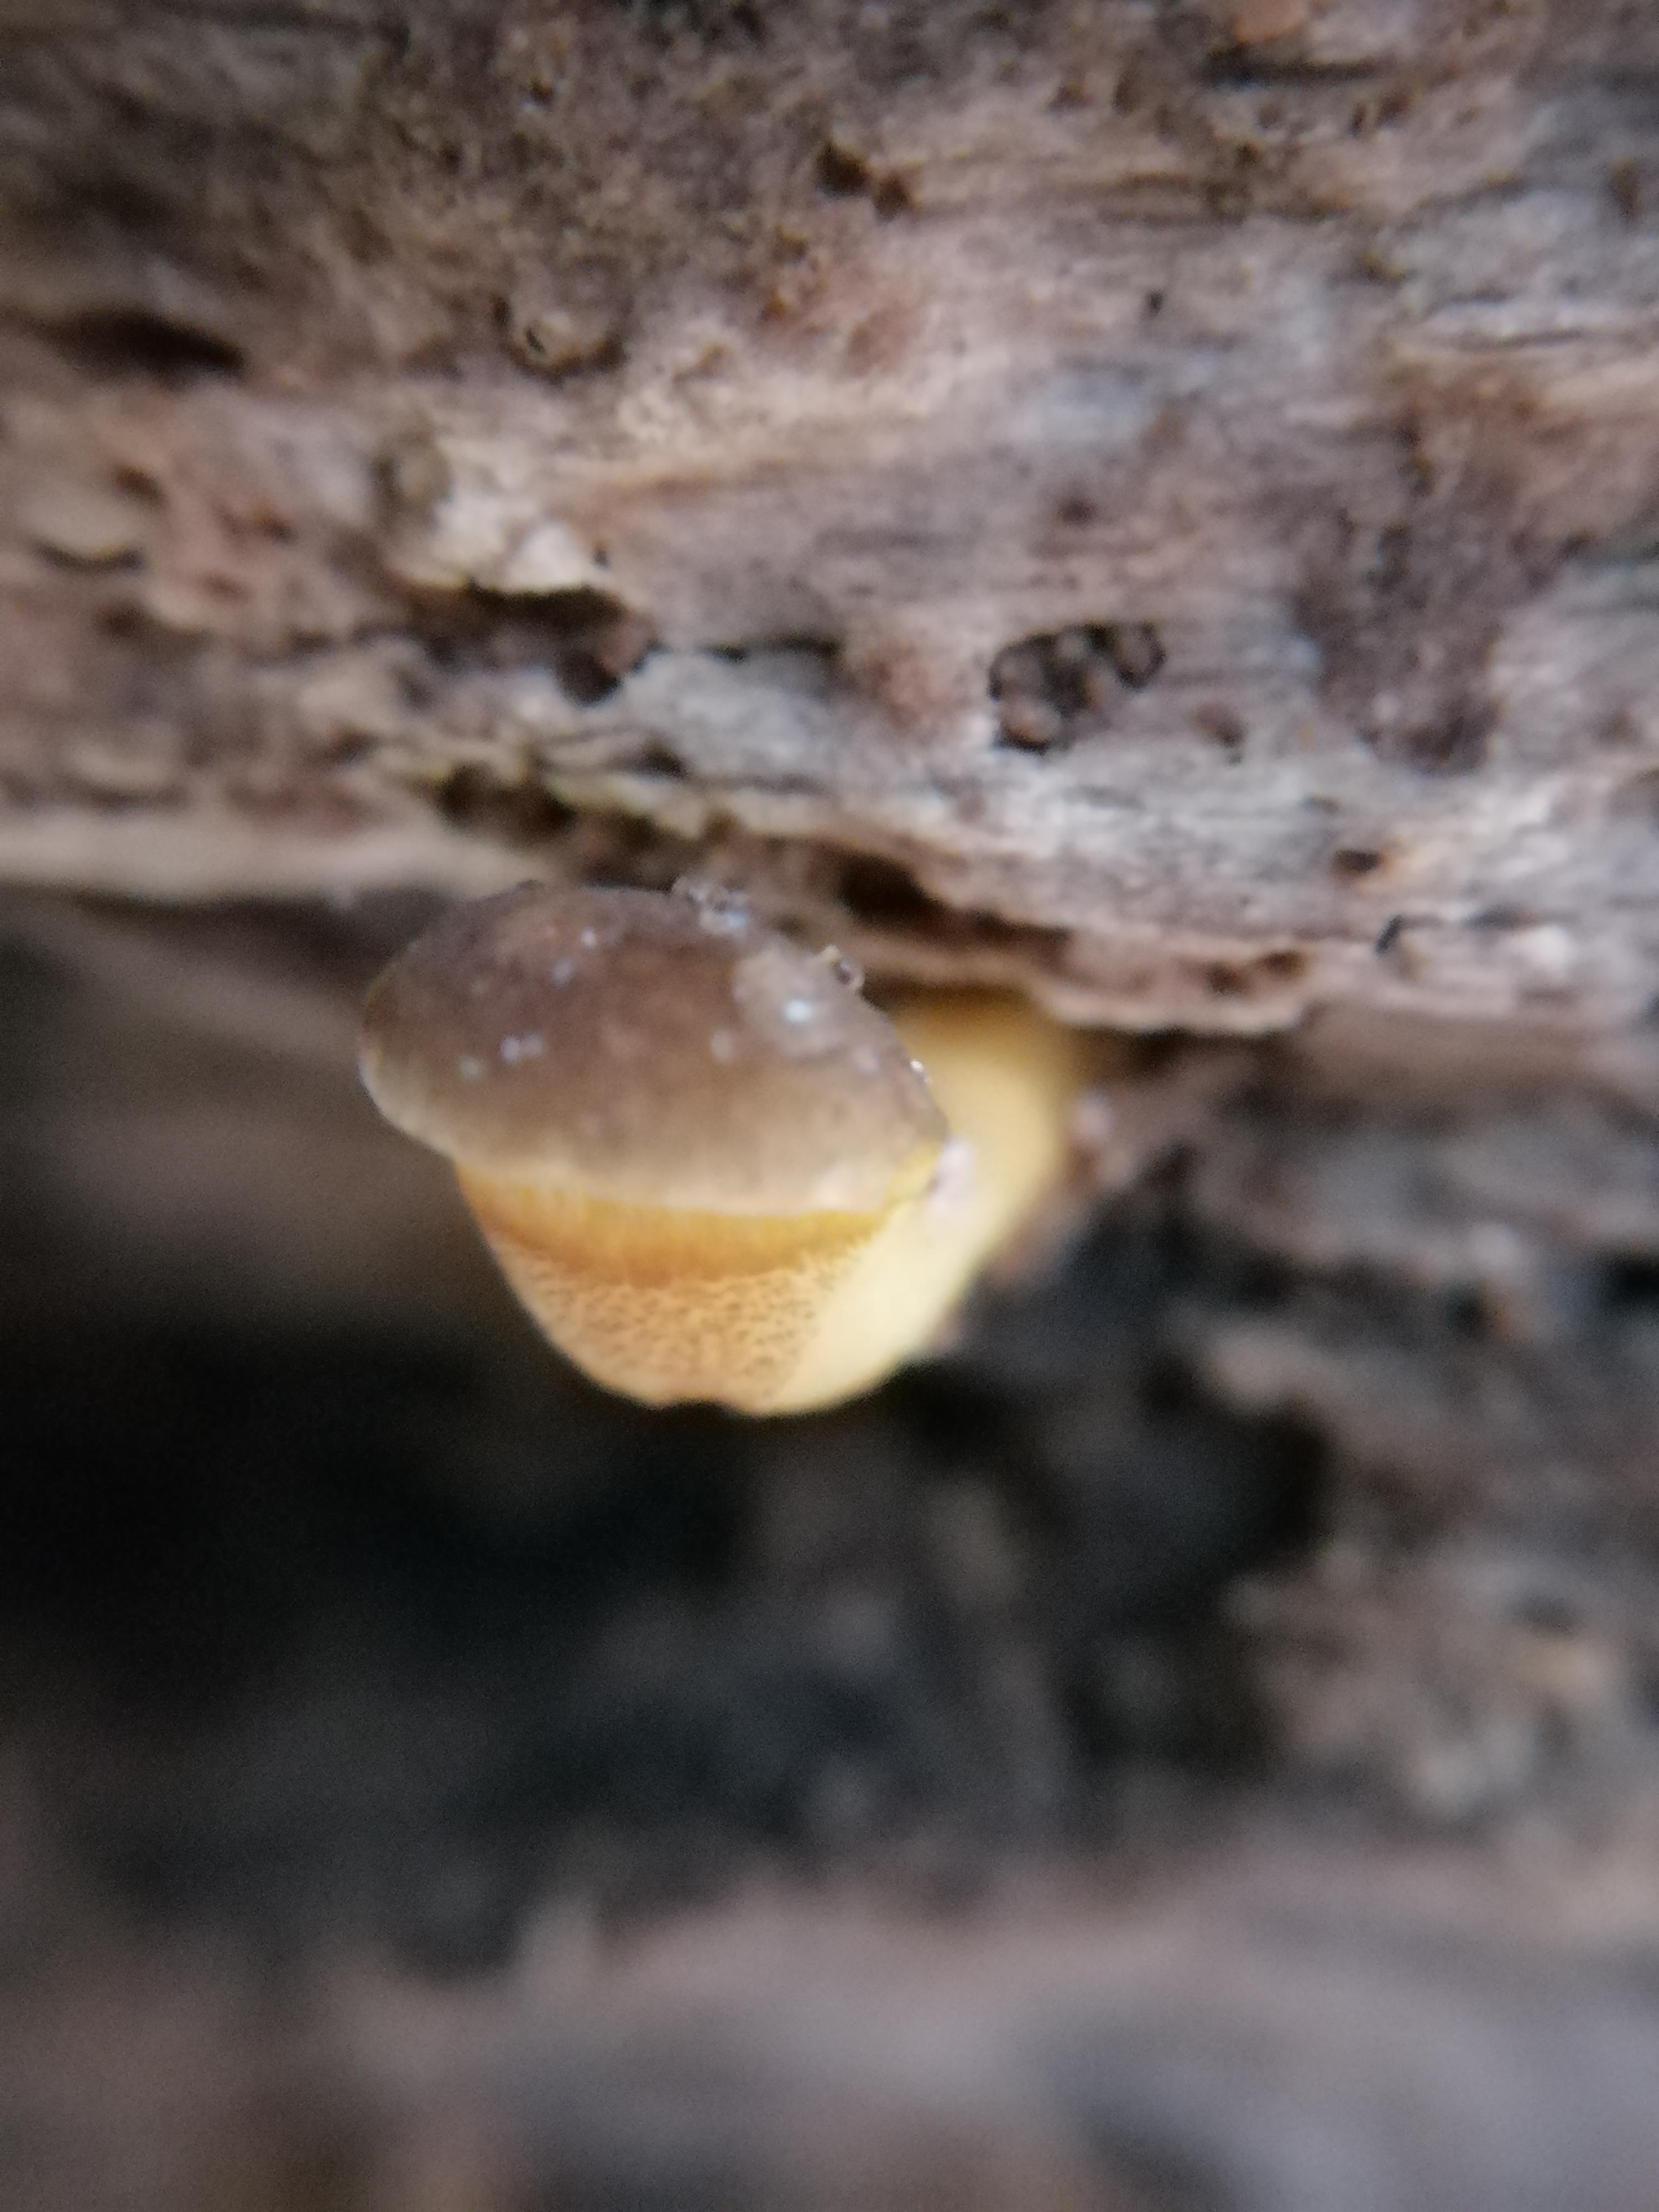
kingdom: Fungi
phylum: Basidiomycota
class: Agaricomycetes
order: Agaricales
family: Sarcomyxaceae
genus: Sarcomyxa
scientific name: Sarcomyxa serotina
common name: gummihat
